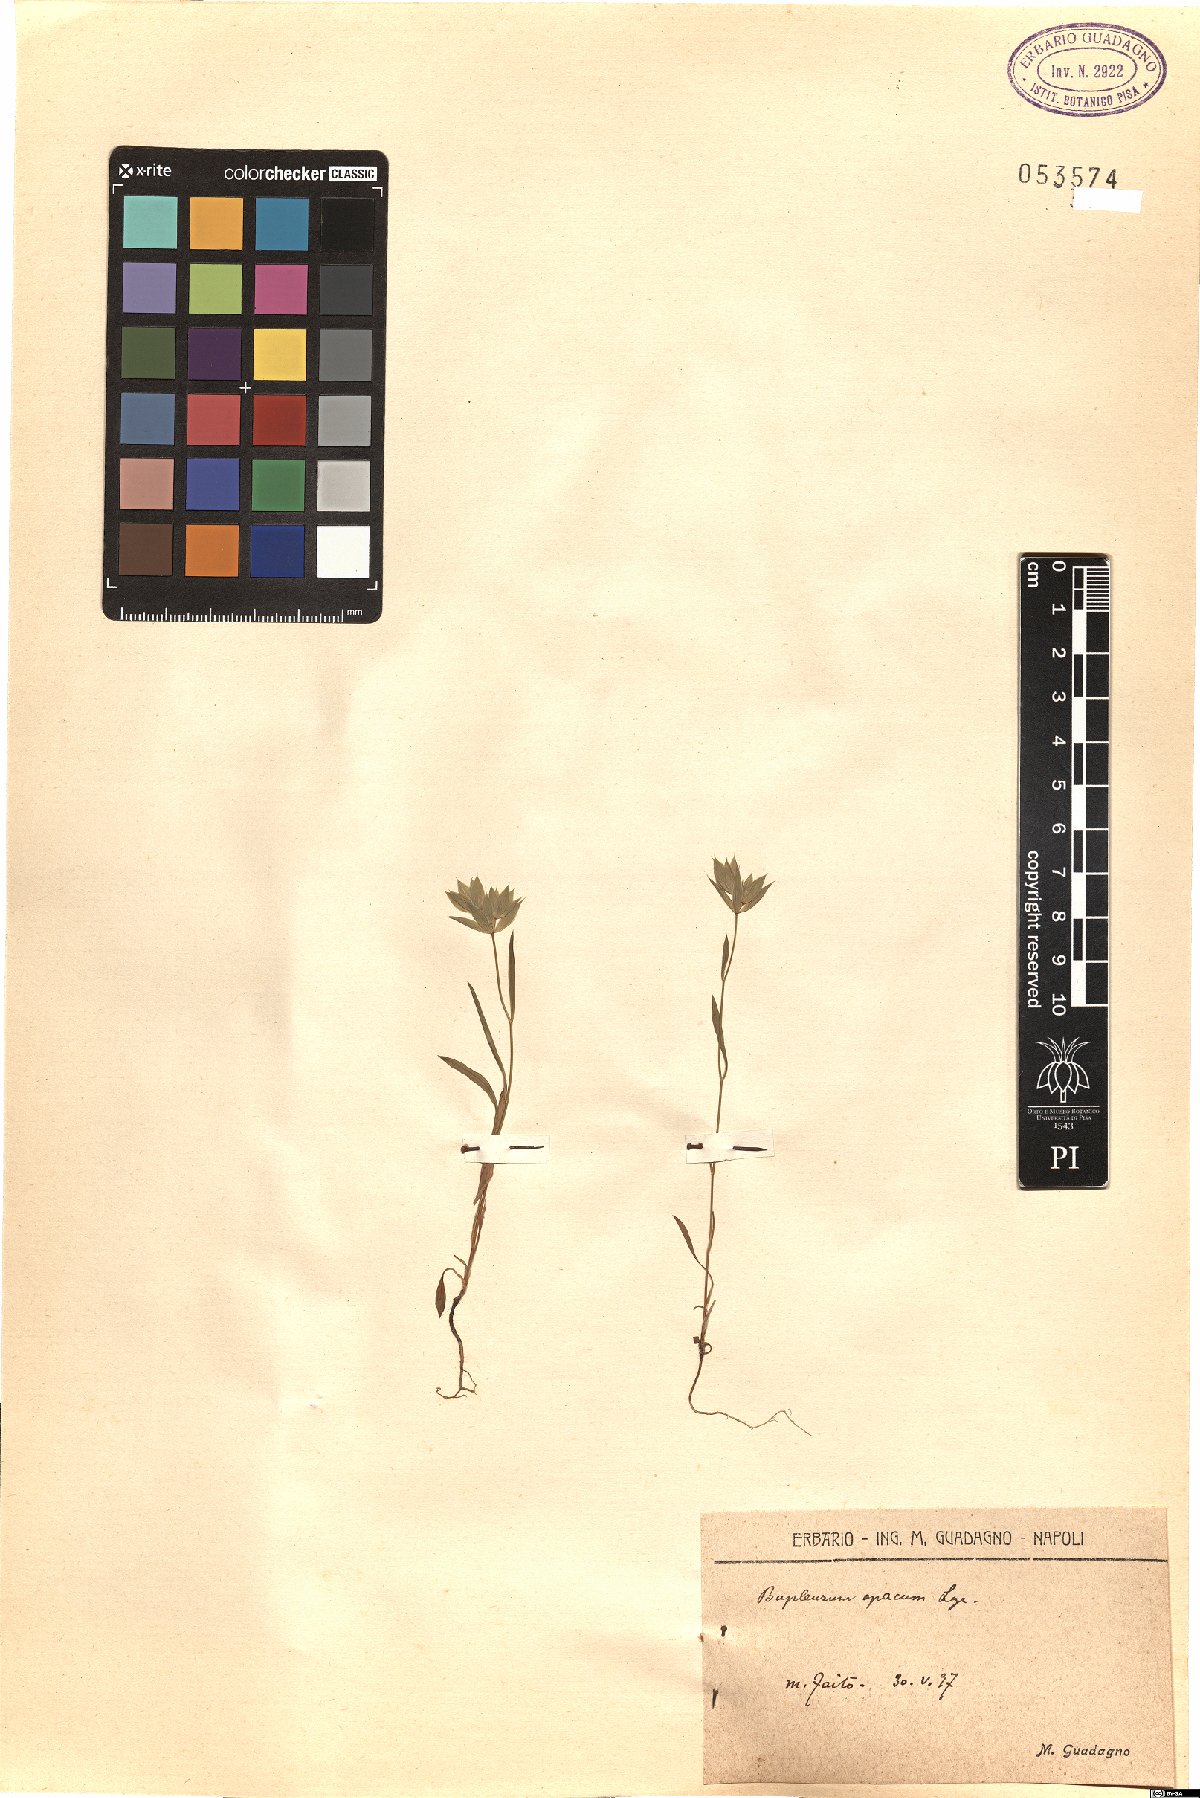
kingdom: Plantae
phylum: Tracheophyta
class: Magnoliopsida
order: Apiales
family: Apiaceae
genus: Bupleurum
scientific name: Bupleurum baldense
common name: Small hare's-ear
